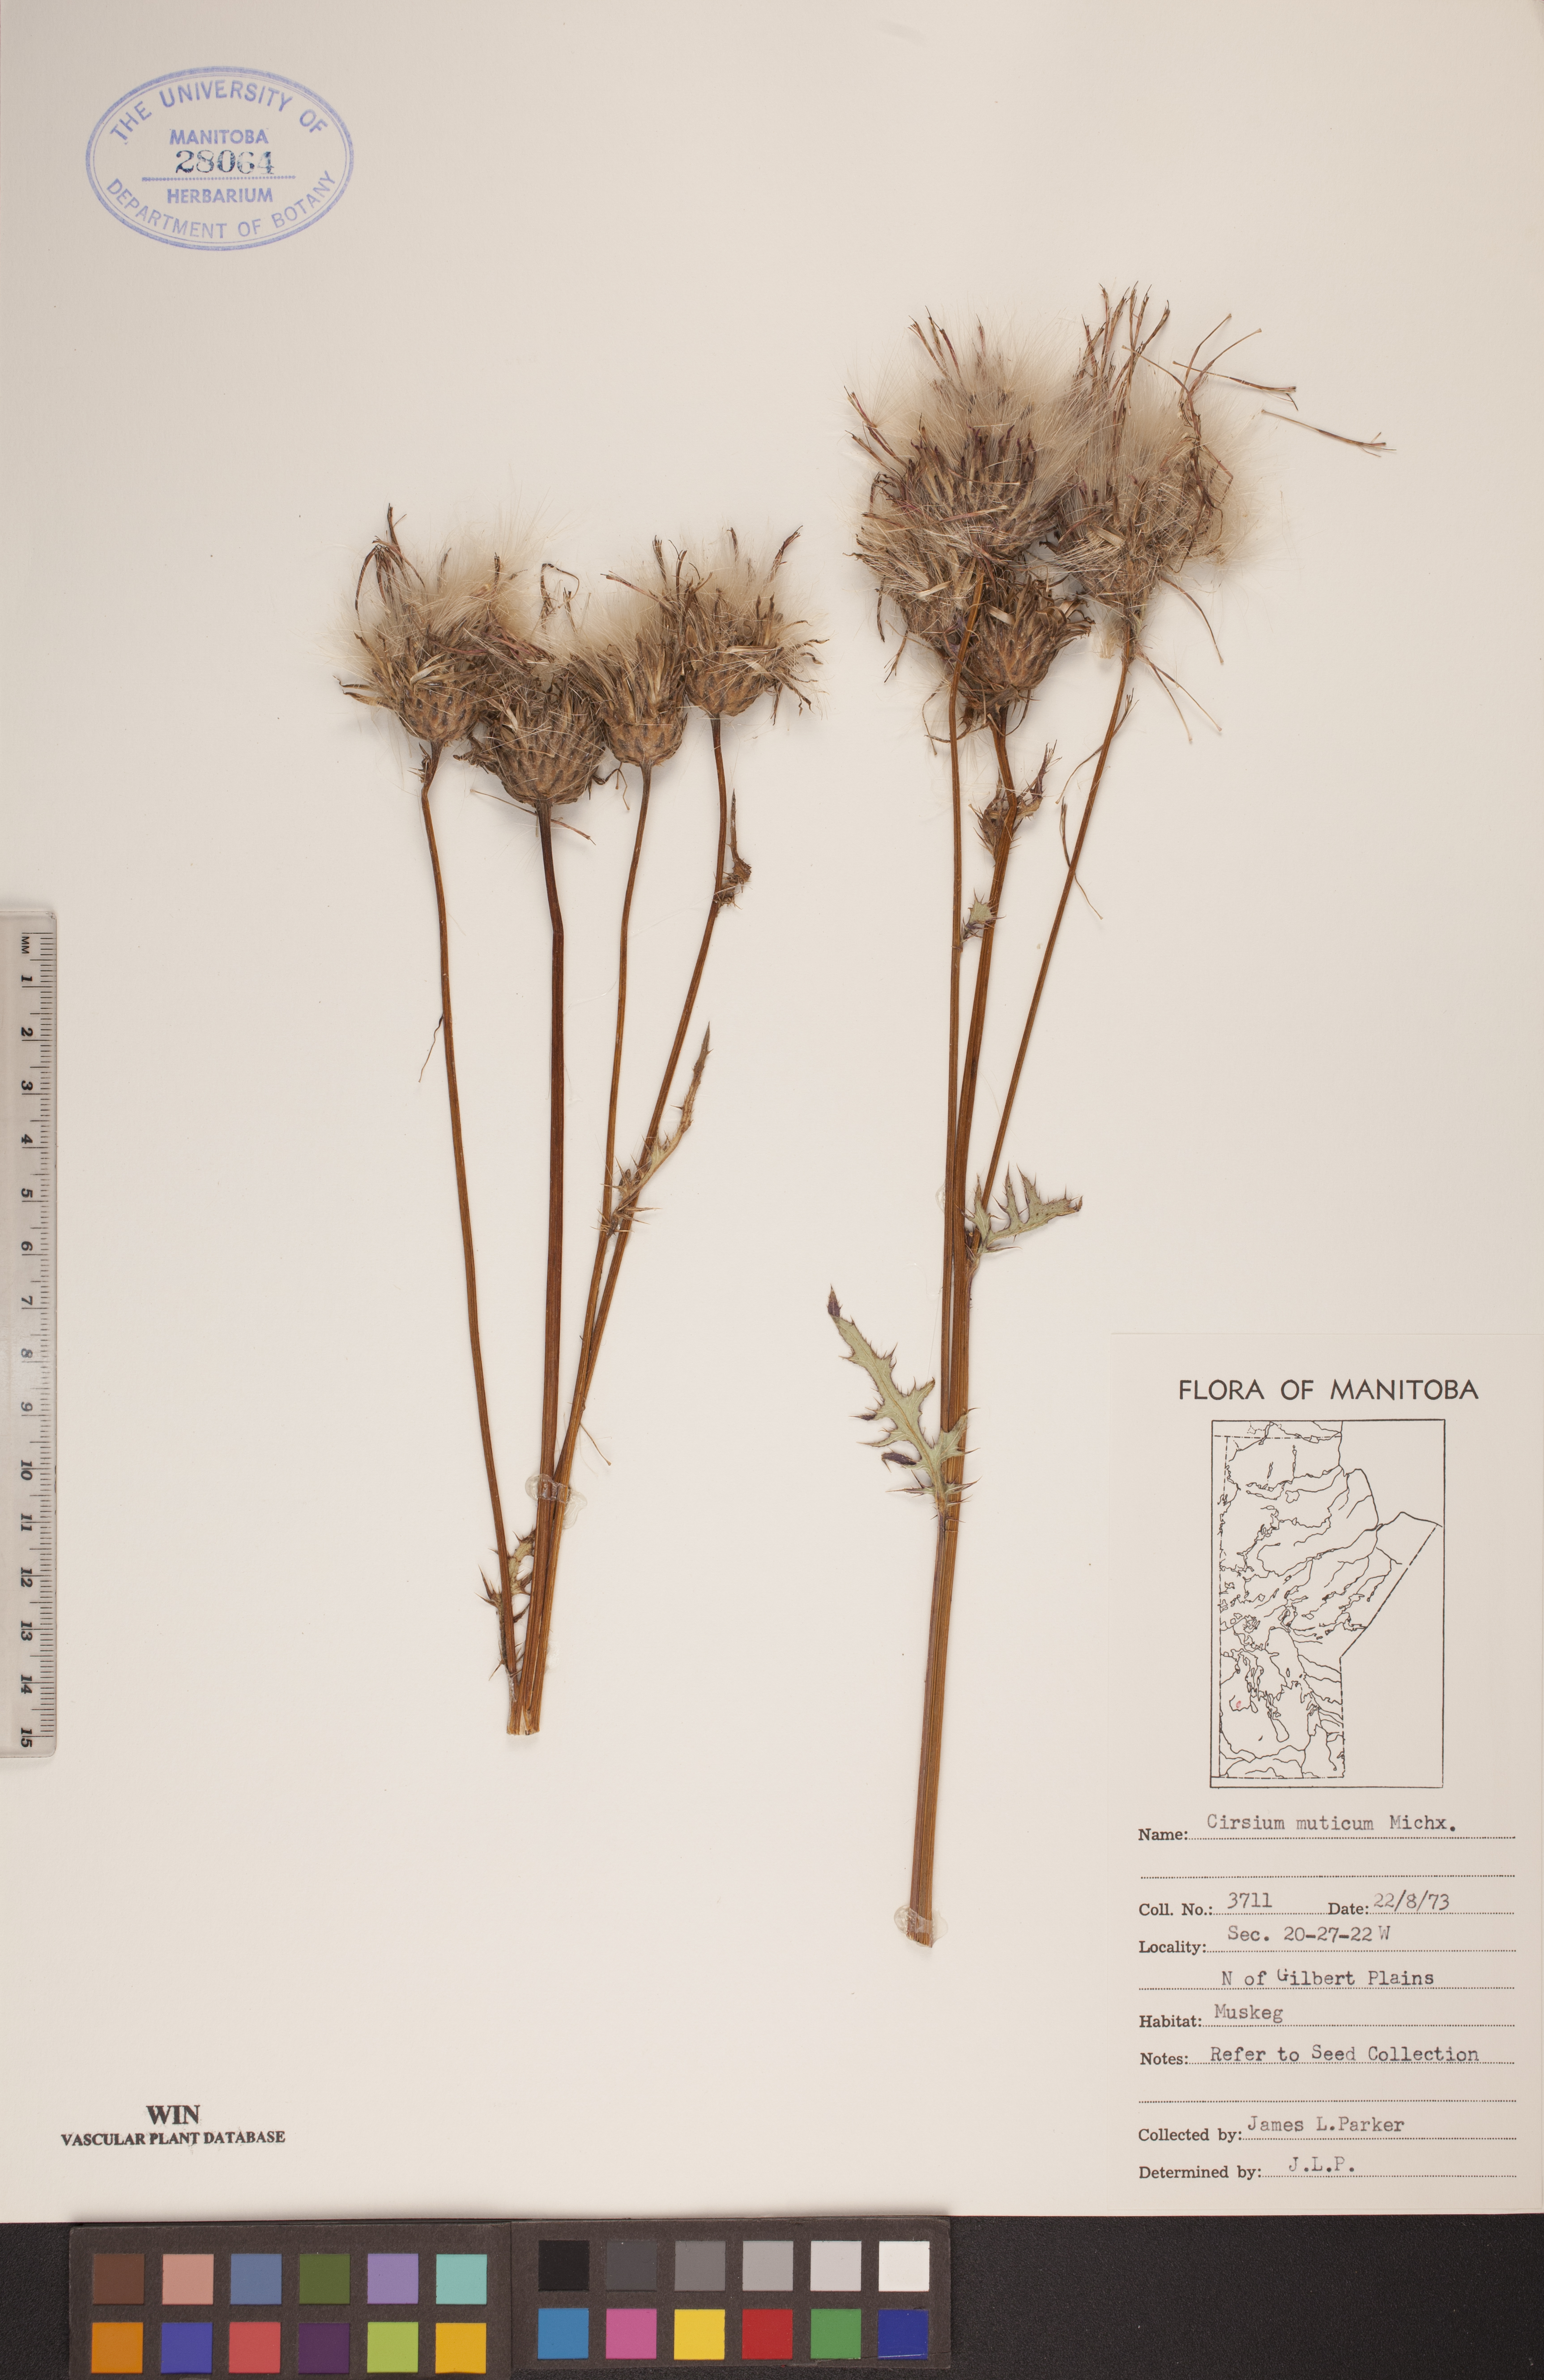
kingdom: Plantae
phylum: Tracheophyta
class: Magnoliopsida
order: Asterales
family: Asteraceae
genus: Cirsium
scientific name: Cirsium muticum
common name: Dunce-nettle
